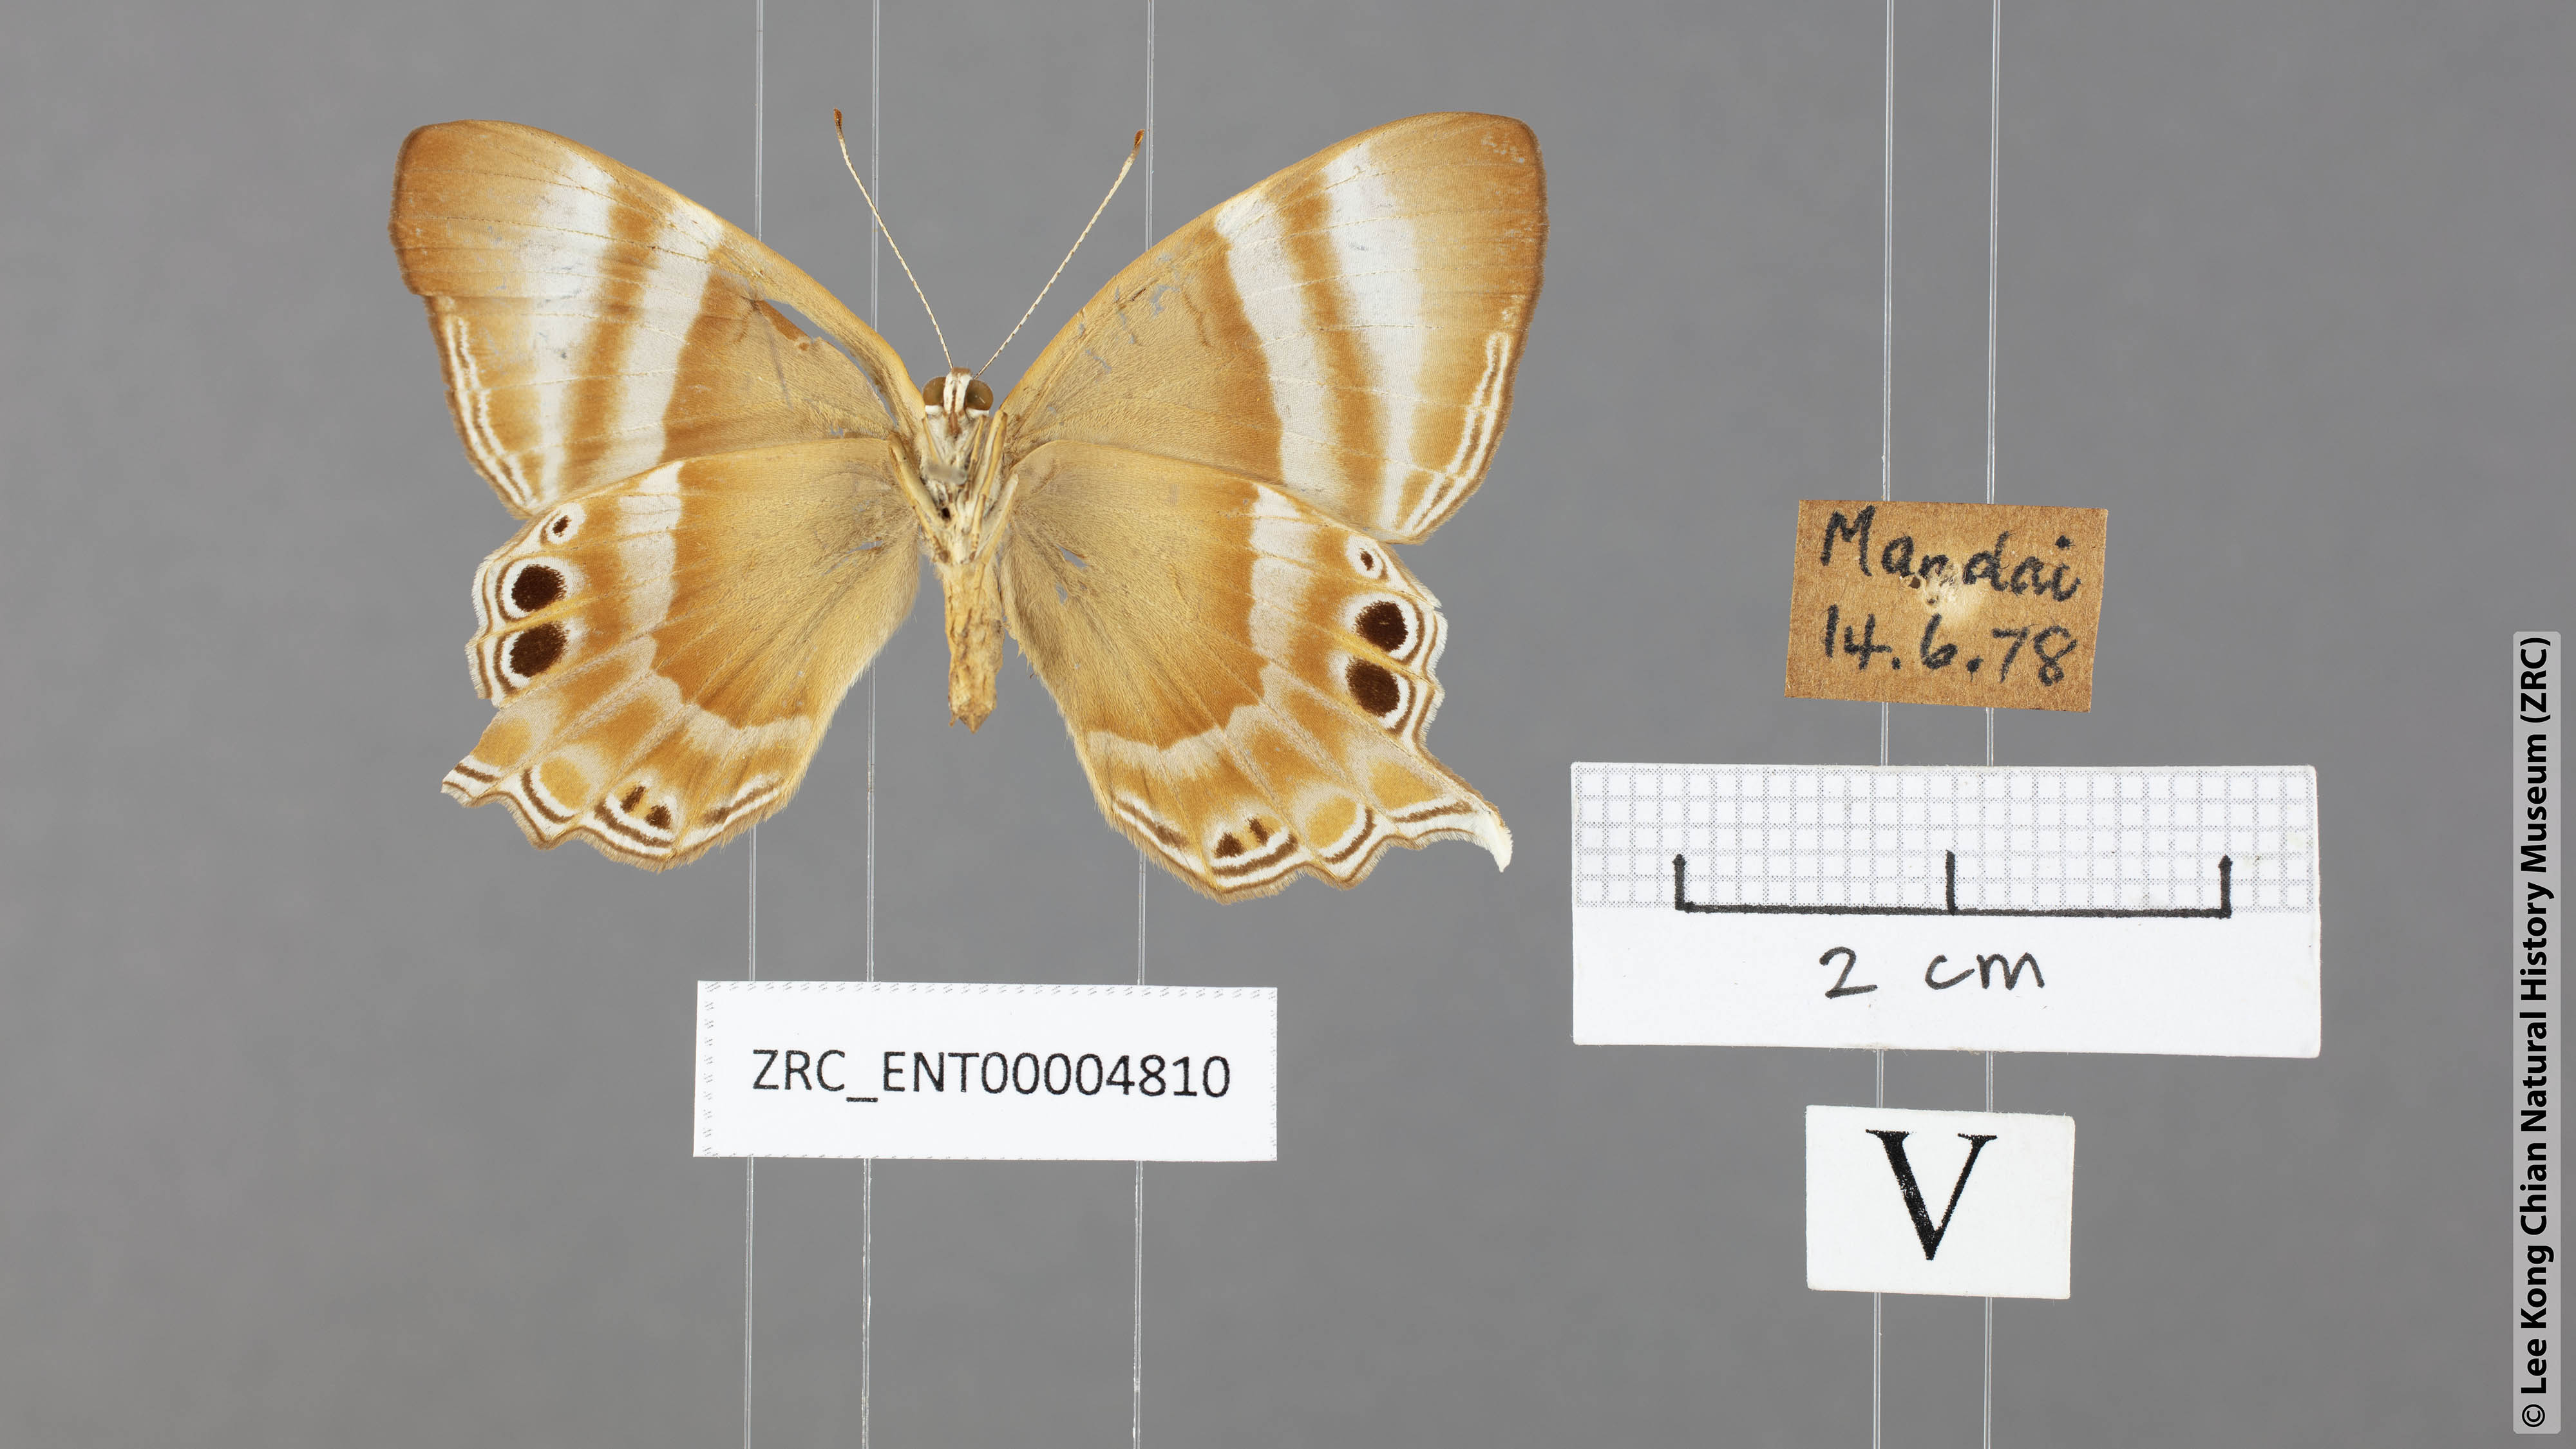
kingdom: Animalia
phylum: Arthropoda
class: Insecta
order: Lepidoptera
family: Riodinidae
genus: Archigenes
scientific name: Archigenes savitri
